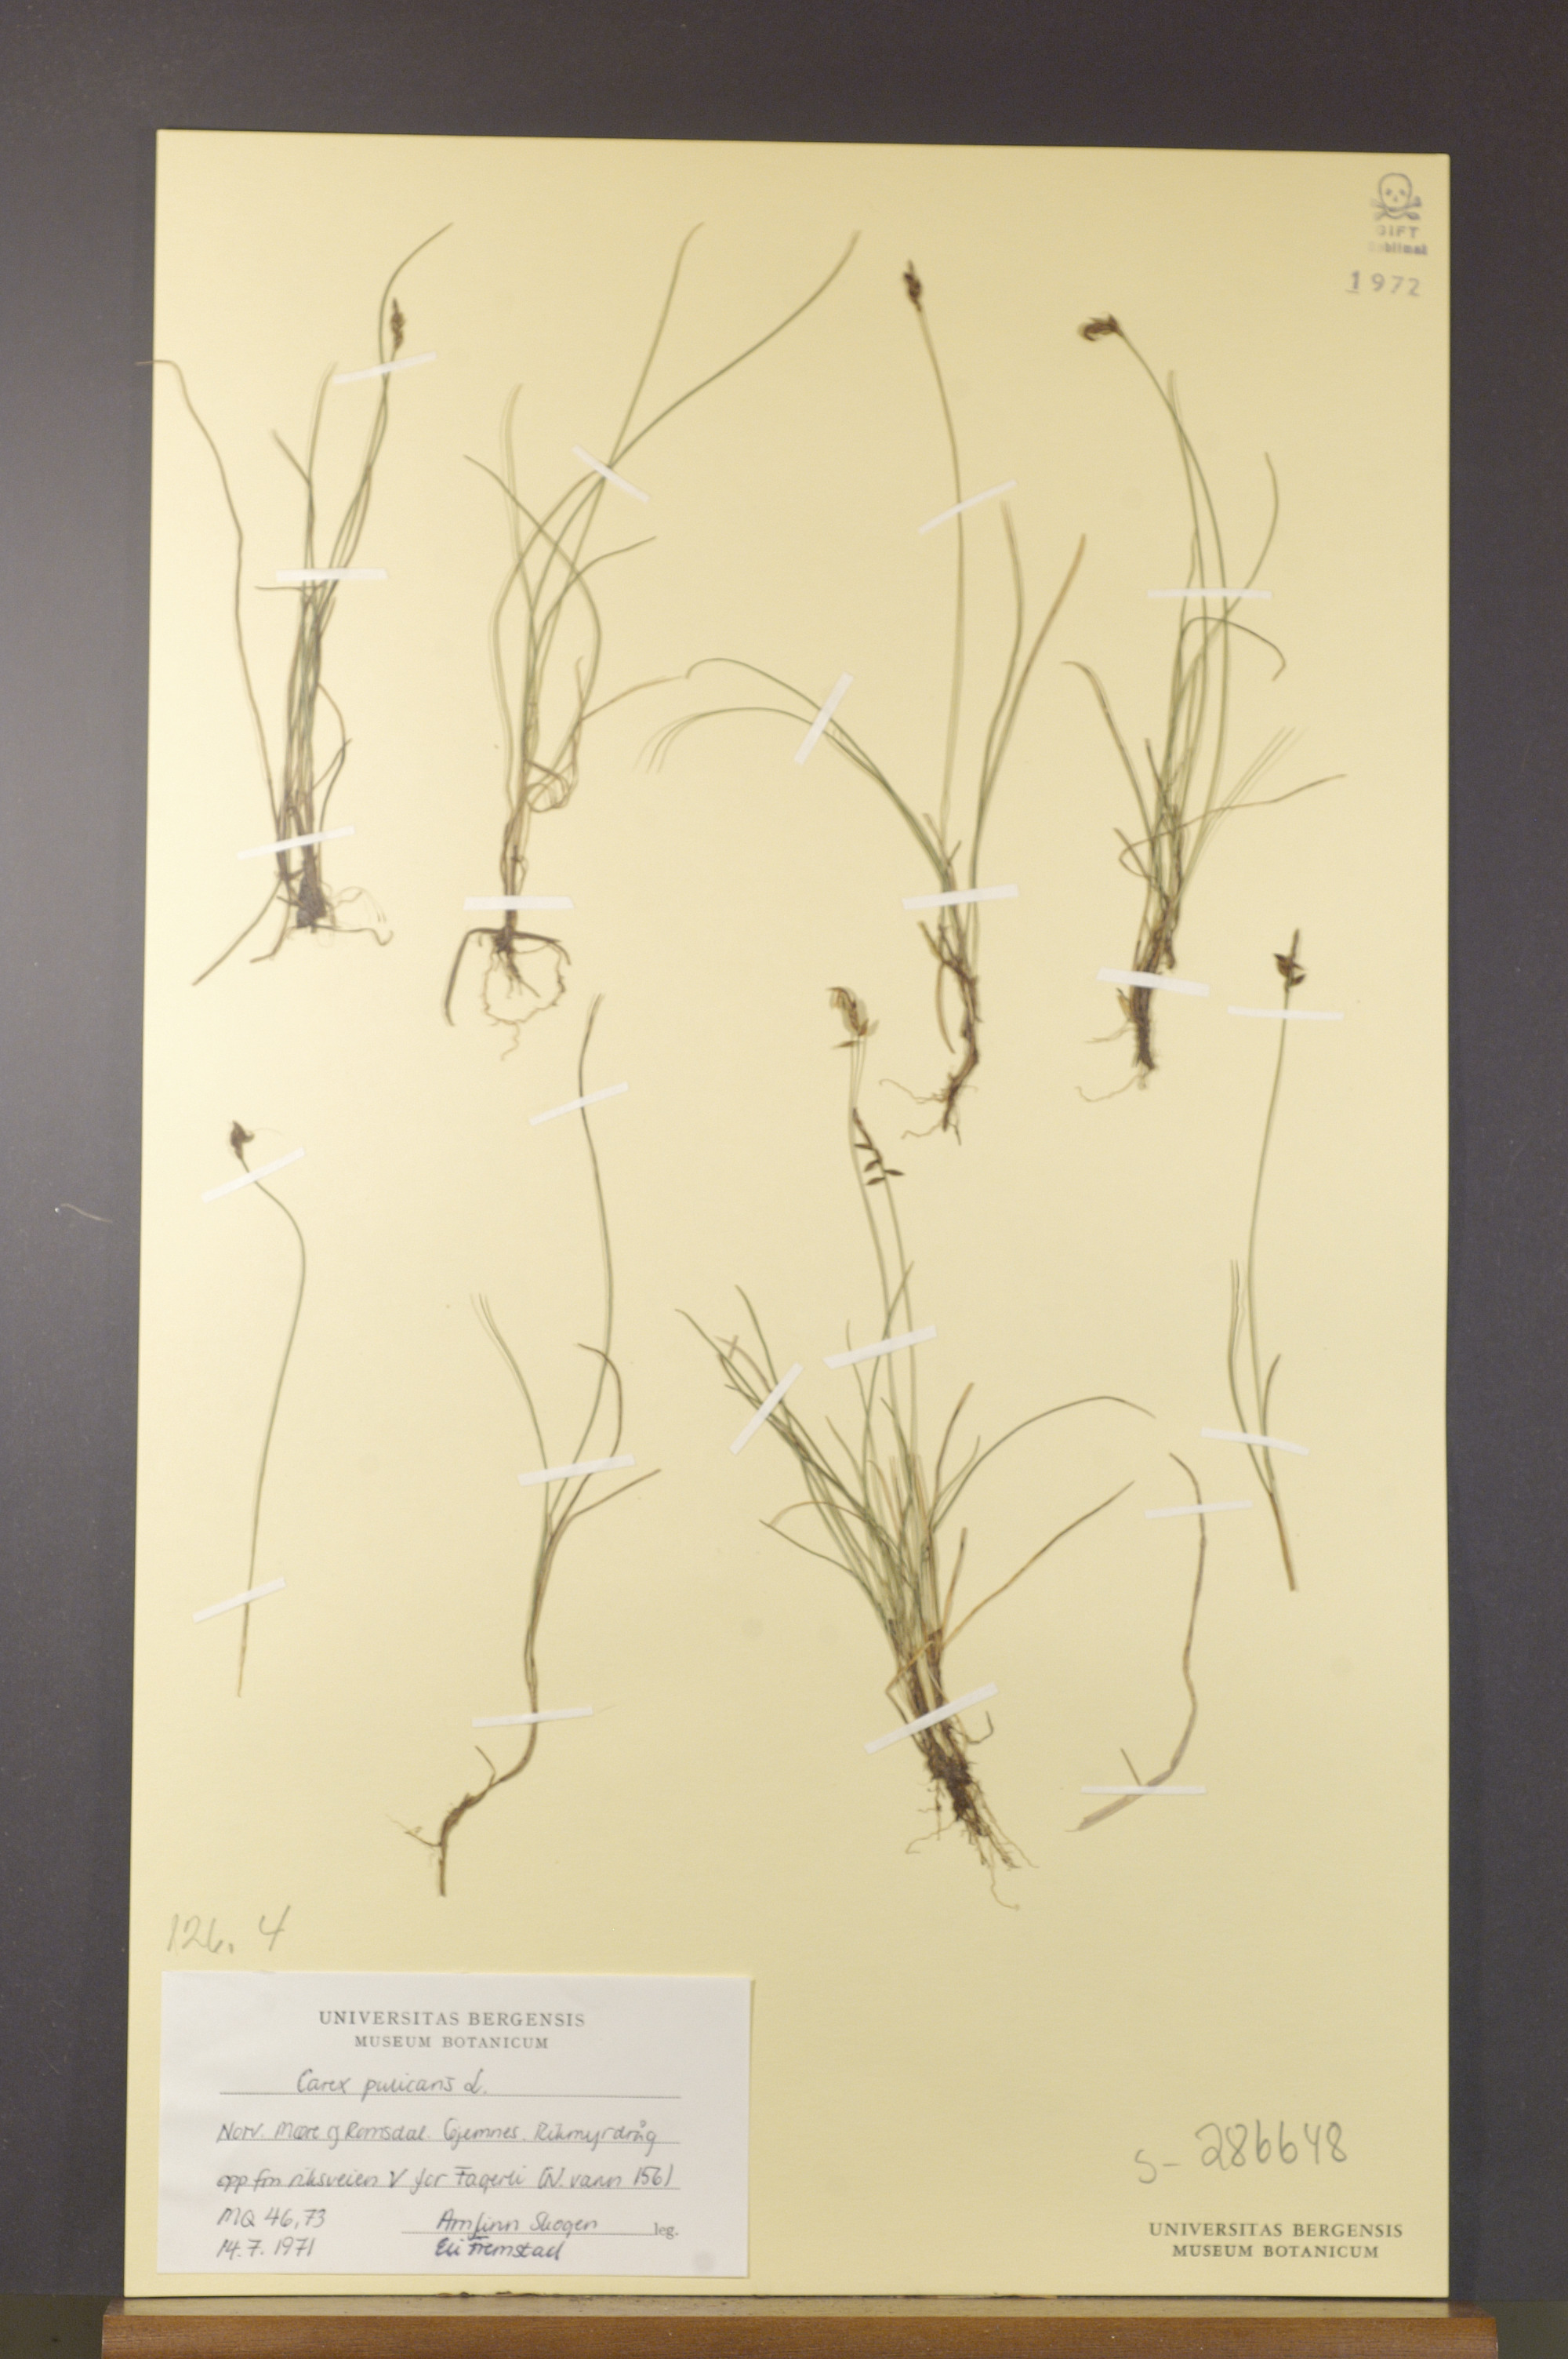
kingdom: Plantae
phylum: Tracheophyta
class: Liliopsida
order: Poales
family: Cyperaceae
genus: Carex
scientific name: Carex pulicaris
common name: Flea sedge
